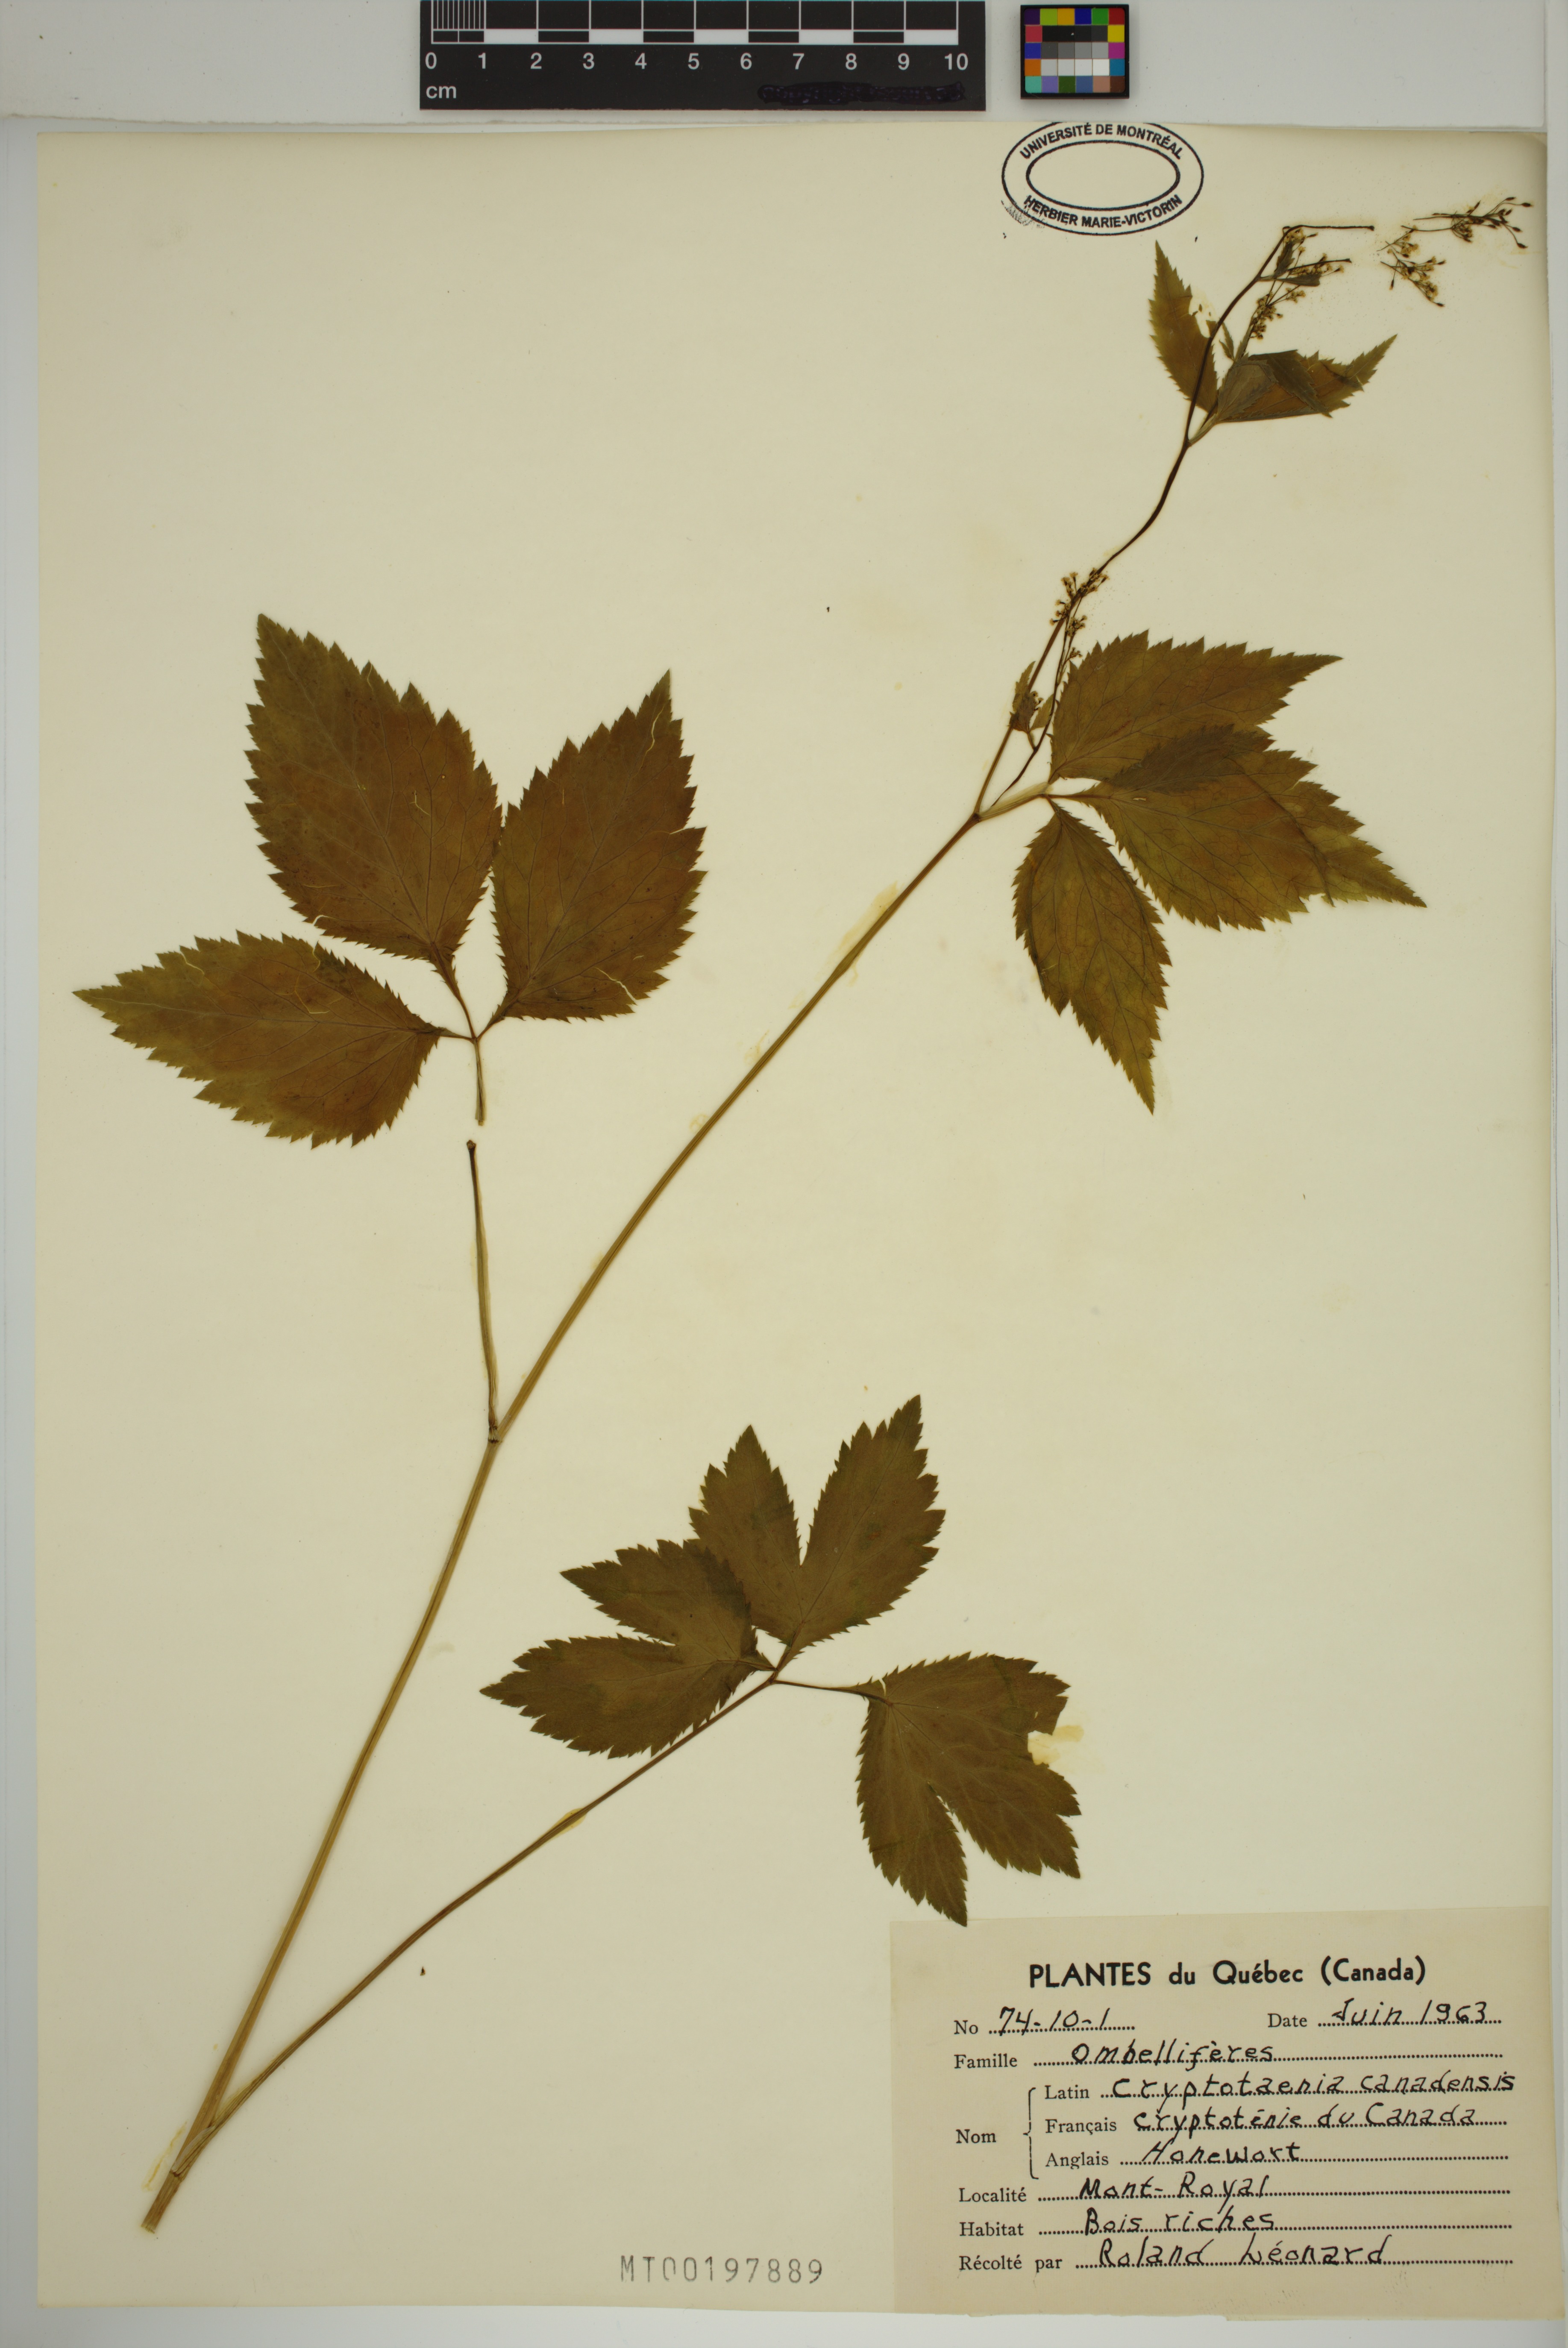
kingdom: Plantae
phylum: Tracheophyta
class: Magnoliopsida
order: Apiales
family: Apiaceae
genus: Cryptotaenia
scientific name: Cryptotaenia canadensis
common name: Honewort
